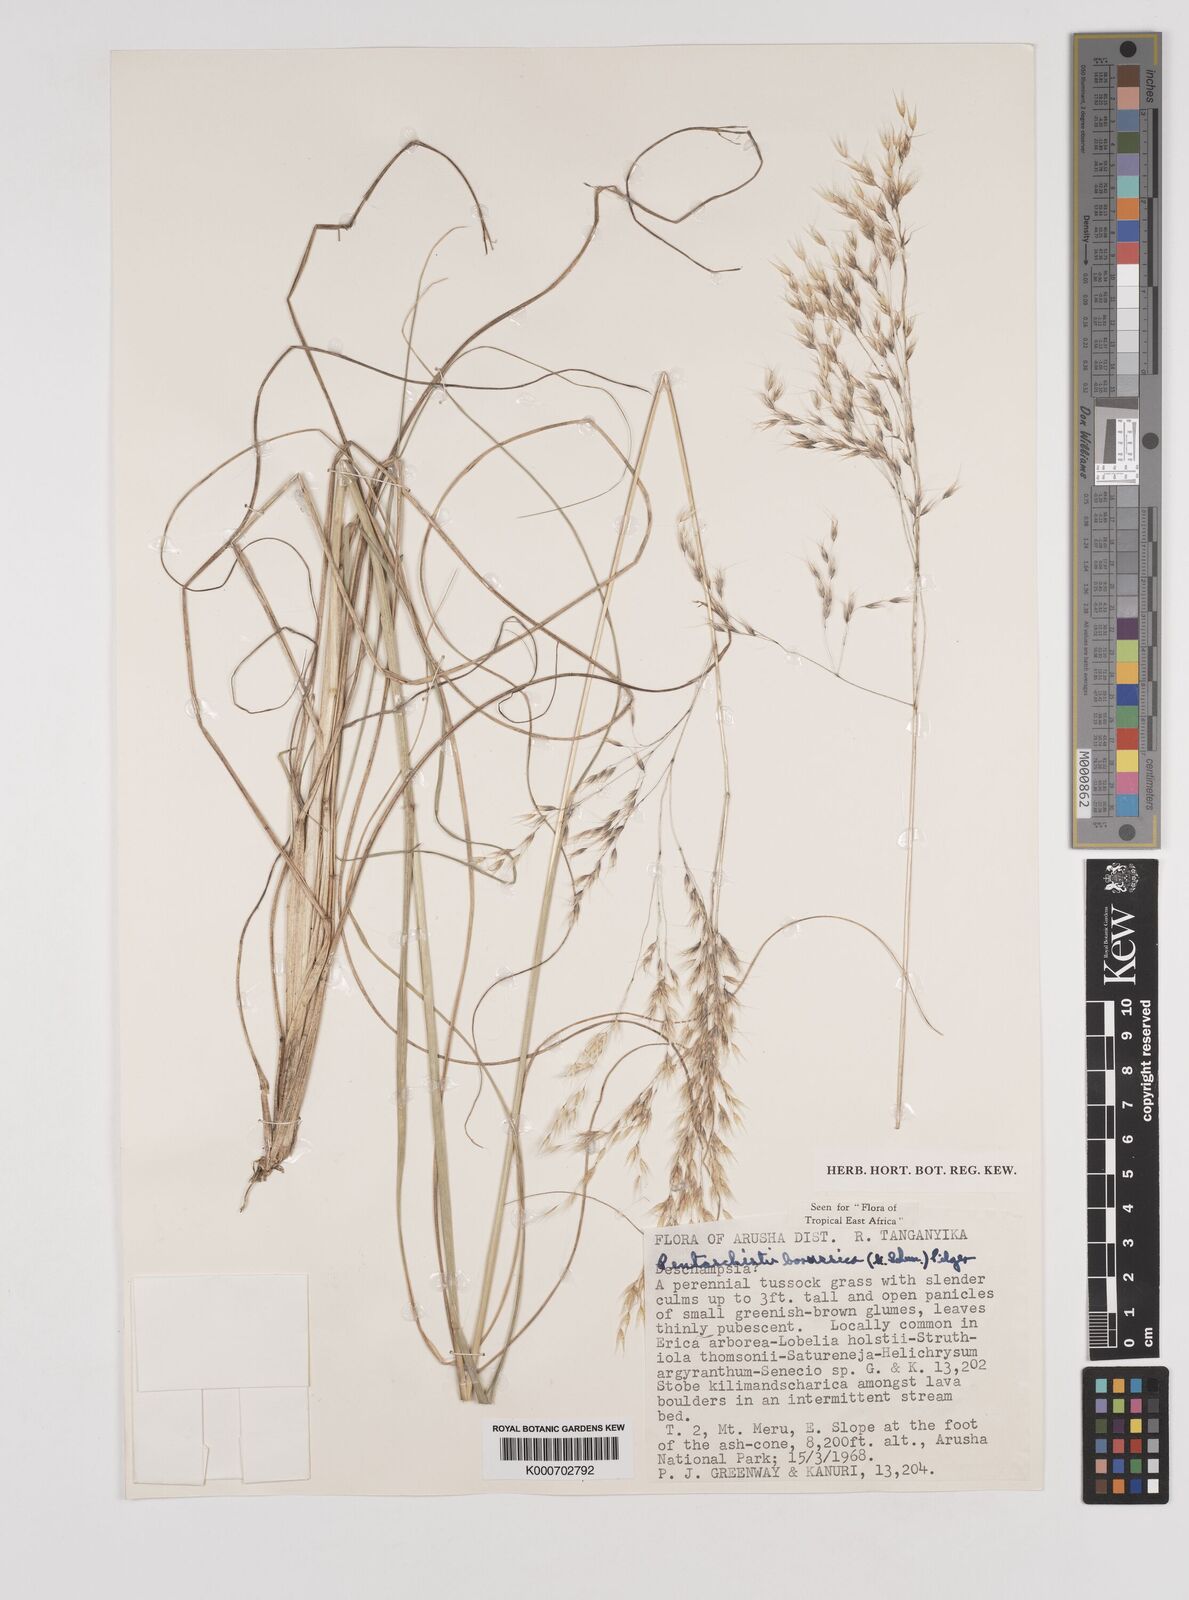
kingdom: Plantae
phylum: Tracheophyta
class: Liliopsida
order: Poales
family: Poaceae
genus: Pentameris
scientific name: Pentameris borussica
